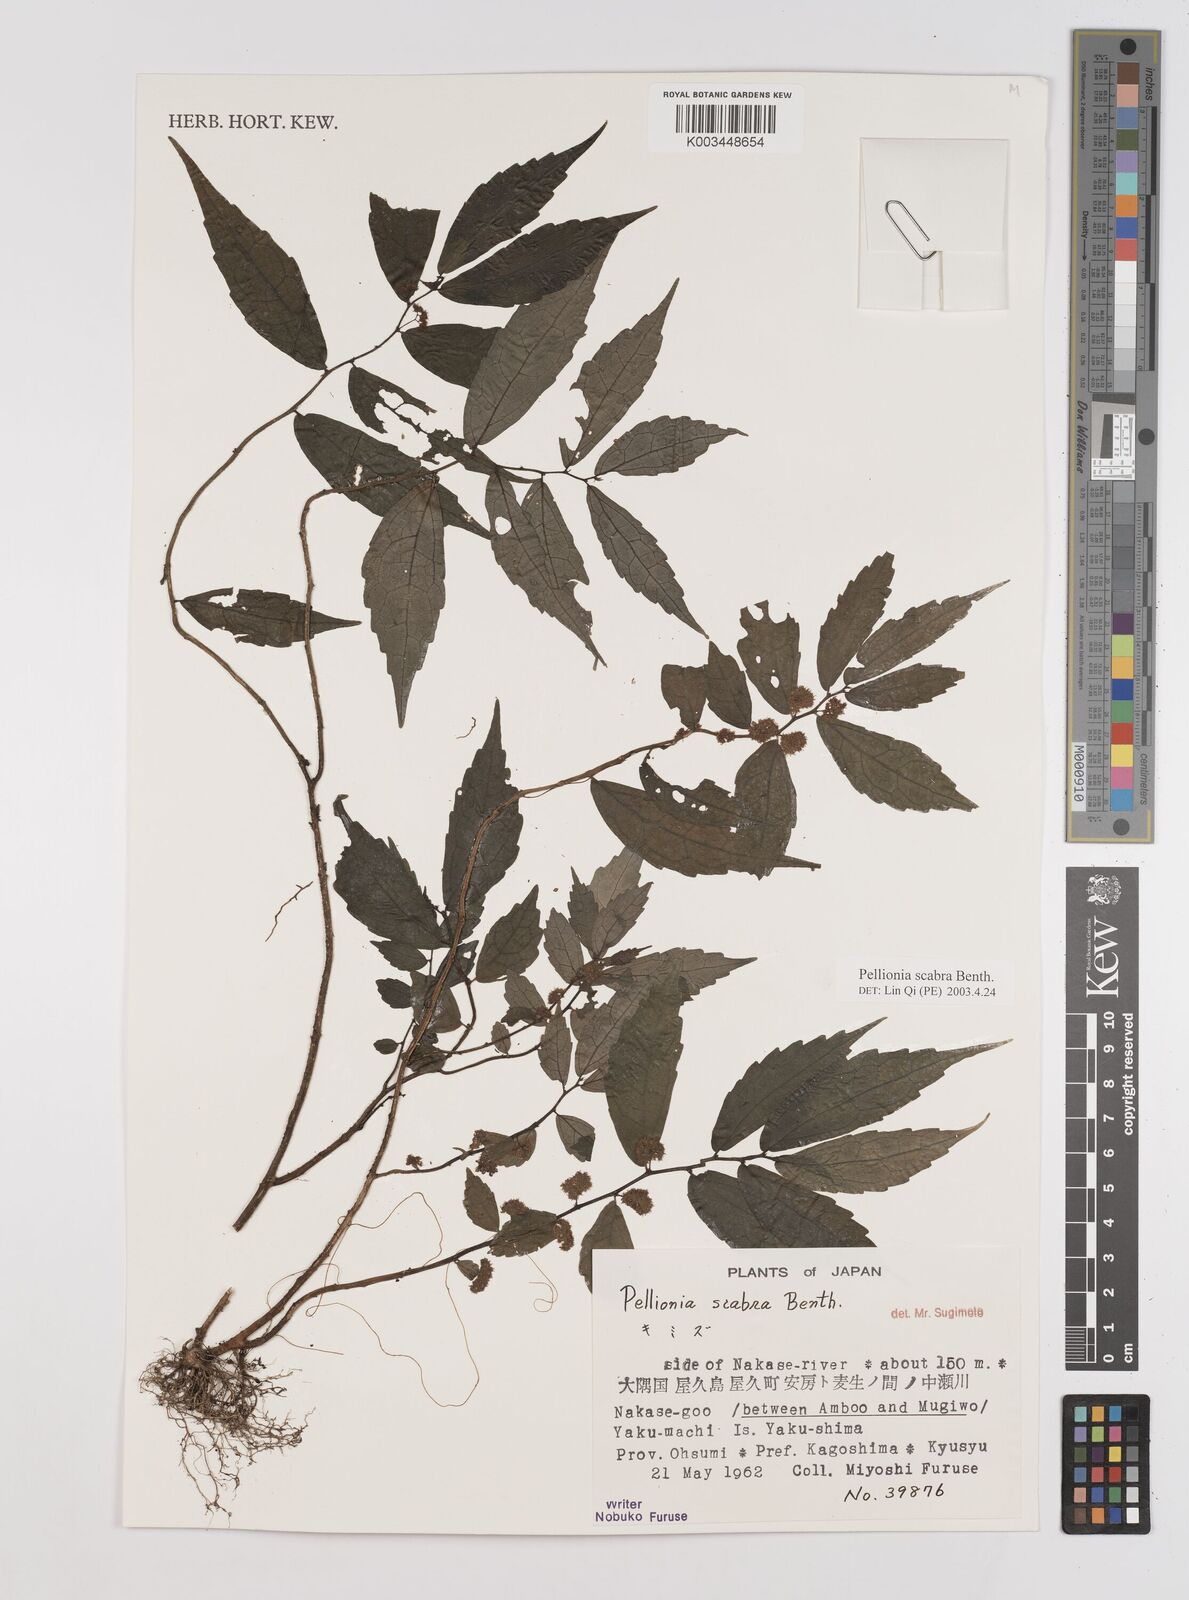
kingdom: Plantae
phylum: Tracheophyta
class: Magnoliopsida
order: Rosales
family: Urticaceae
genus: Elatostema
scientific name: Elatostema
